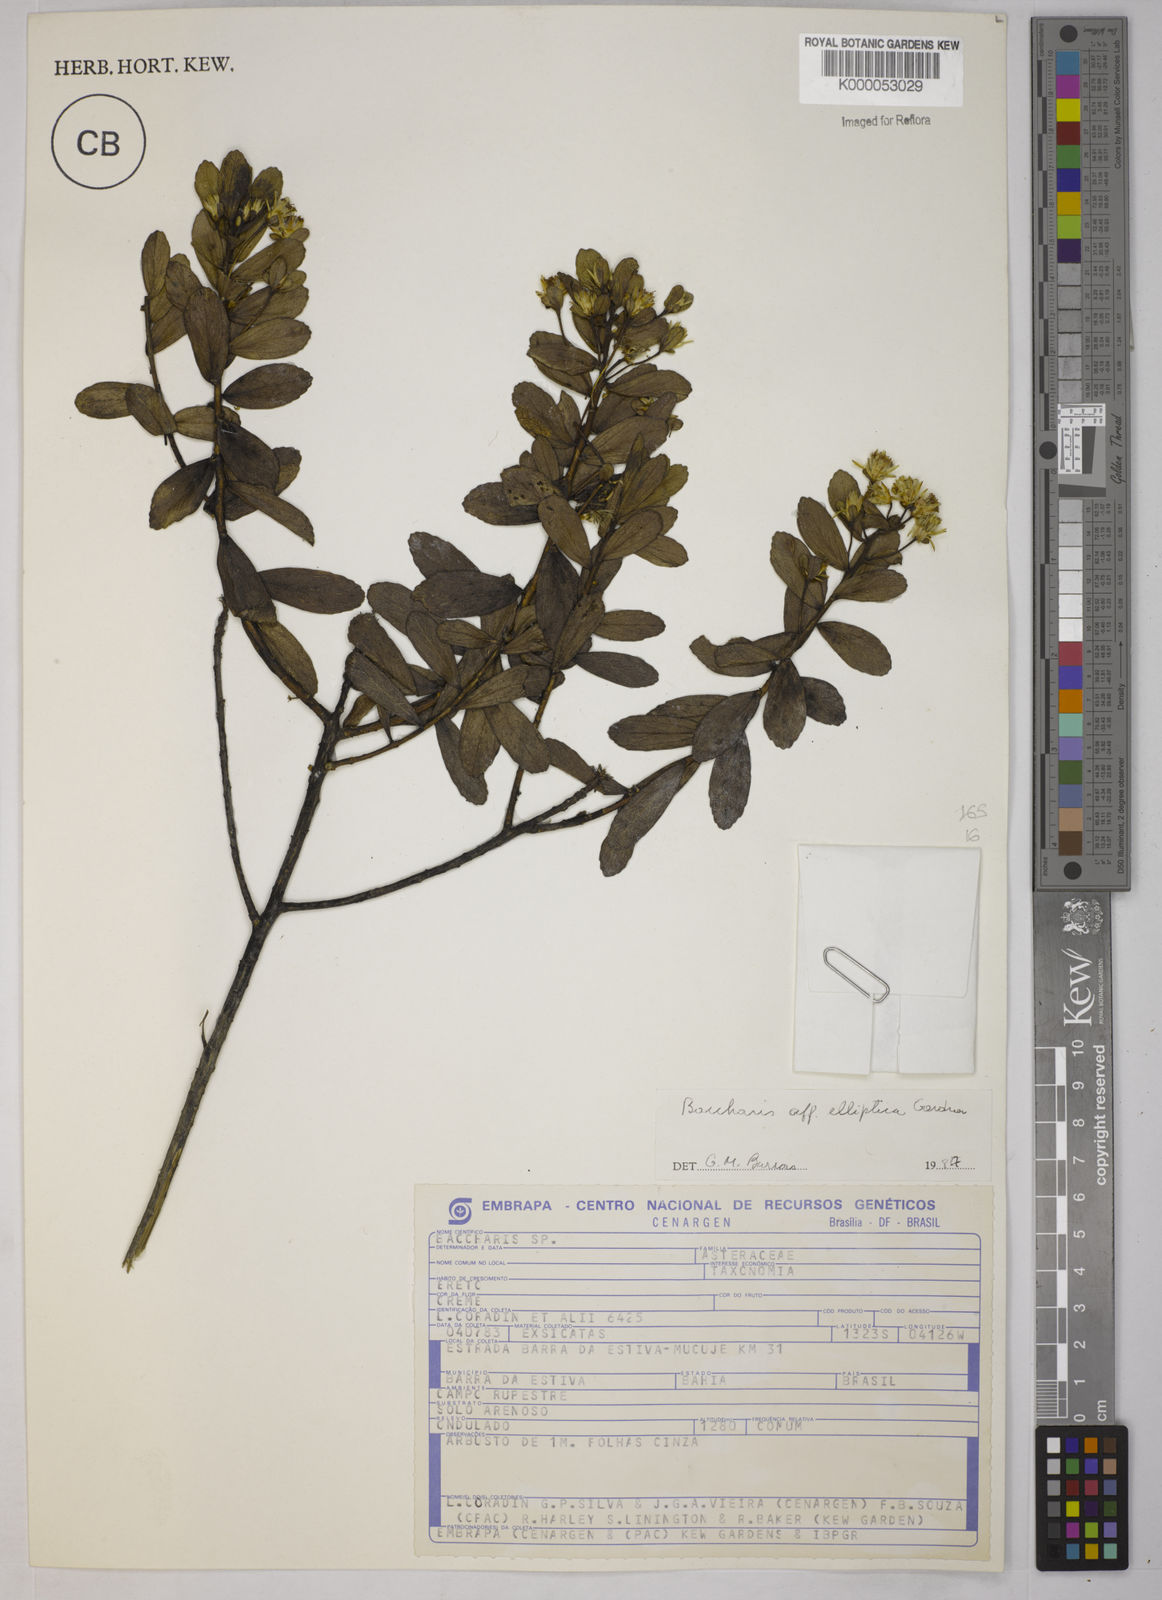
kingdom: Plantae
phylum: Tracheophyta
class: Magnoliopsida
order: Asterales
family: Asteraceae
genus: Baccharis
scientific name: Baccharis elliptica
